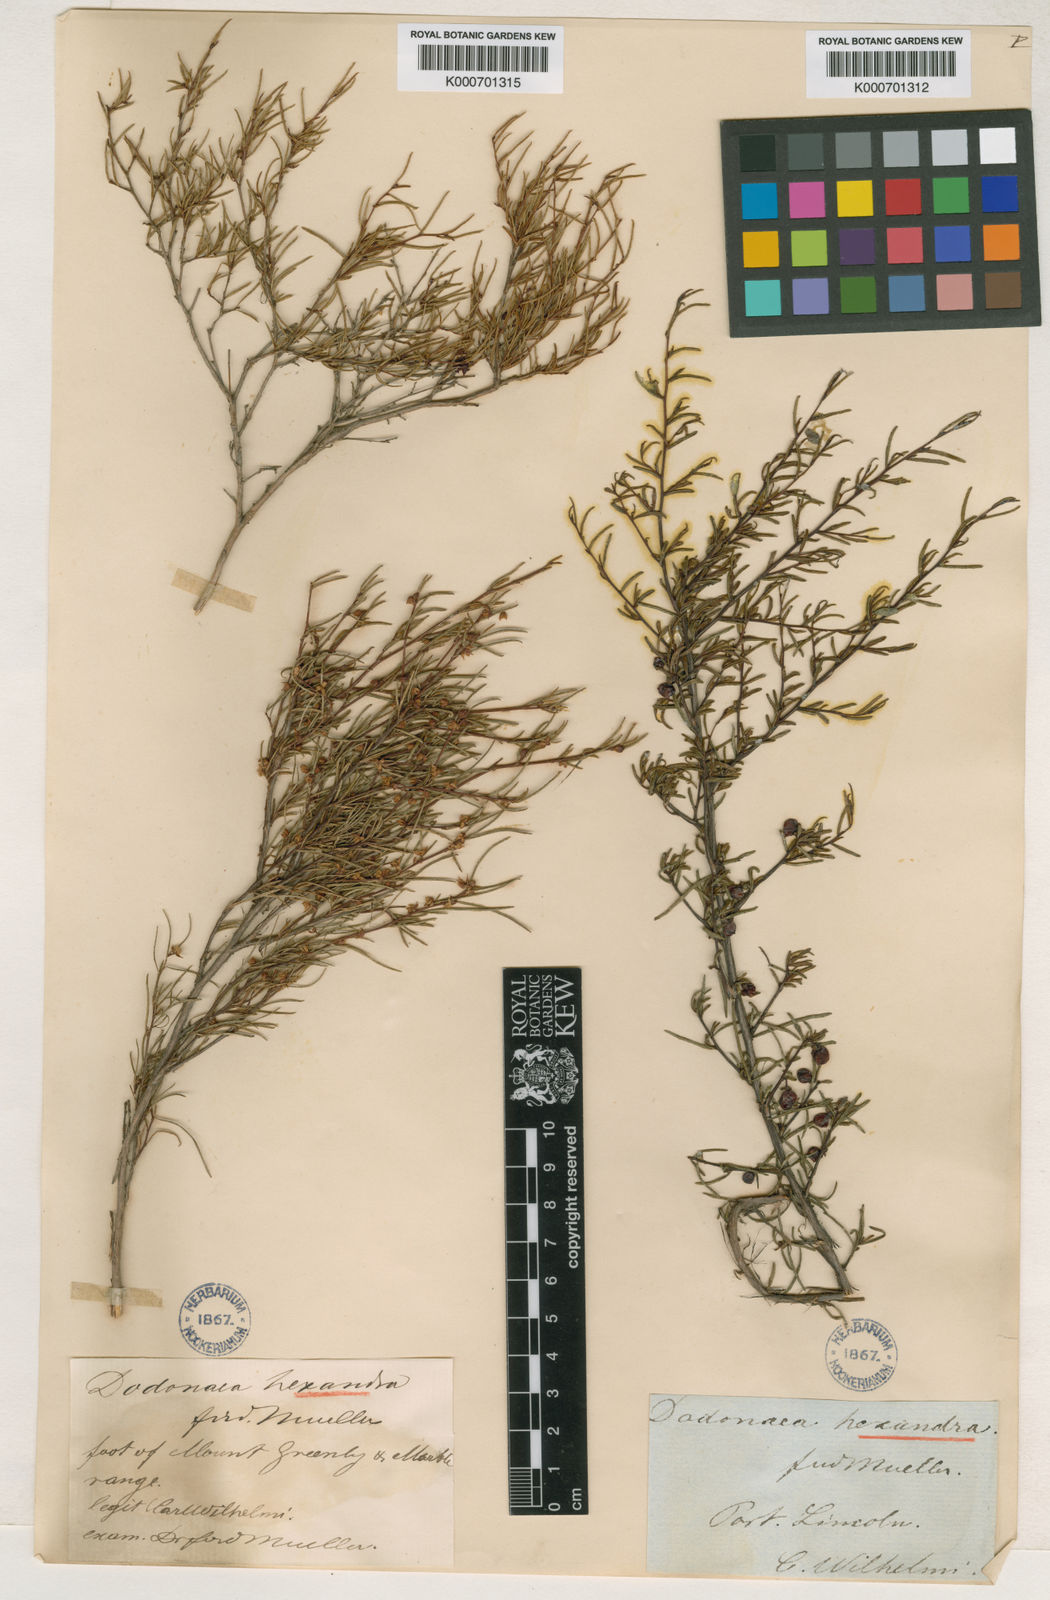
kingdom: Plantae
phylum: Tracheophyta
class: Magnoliopsida
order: Sapindales
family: Sapindaceae
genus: Dodonaea
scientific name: Dodonaea hexandra
